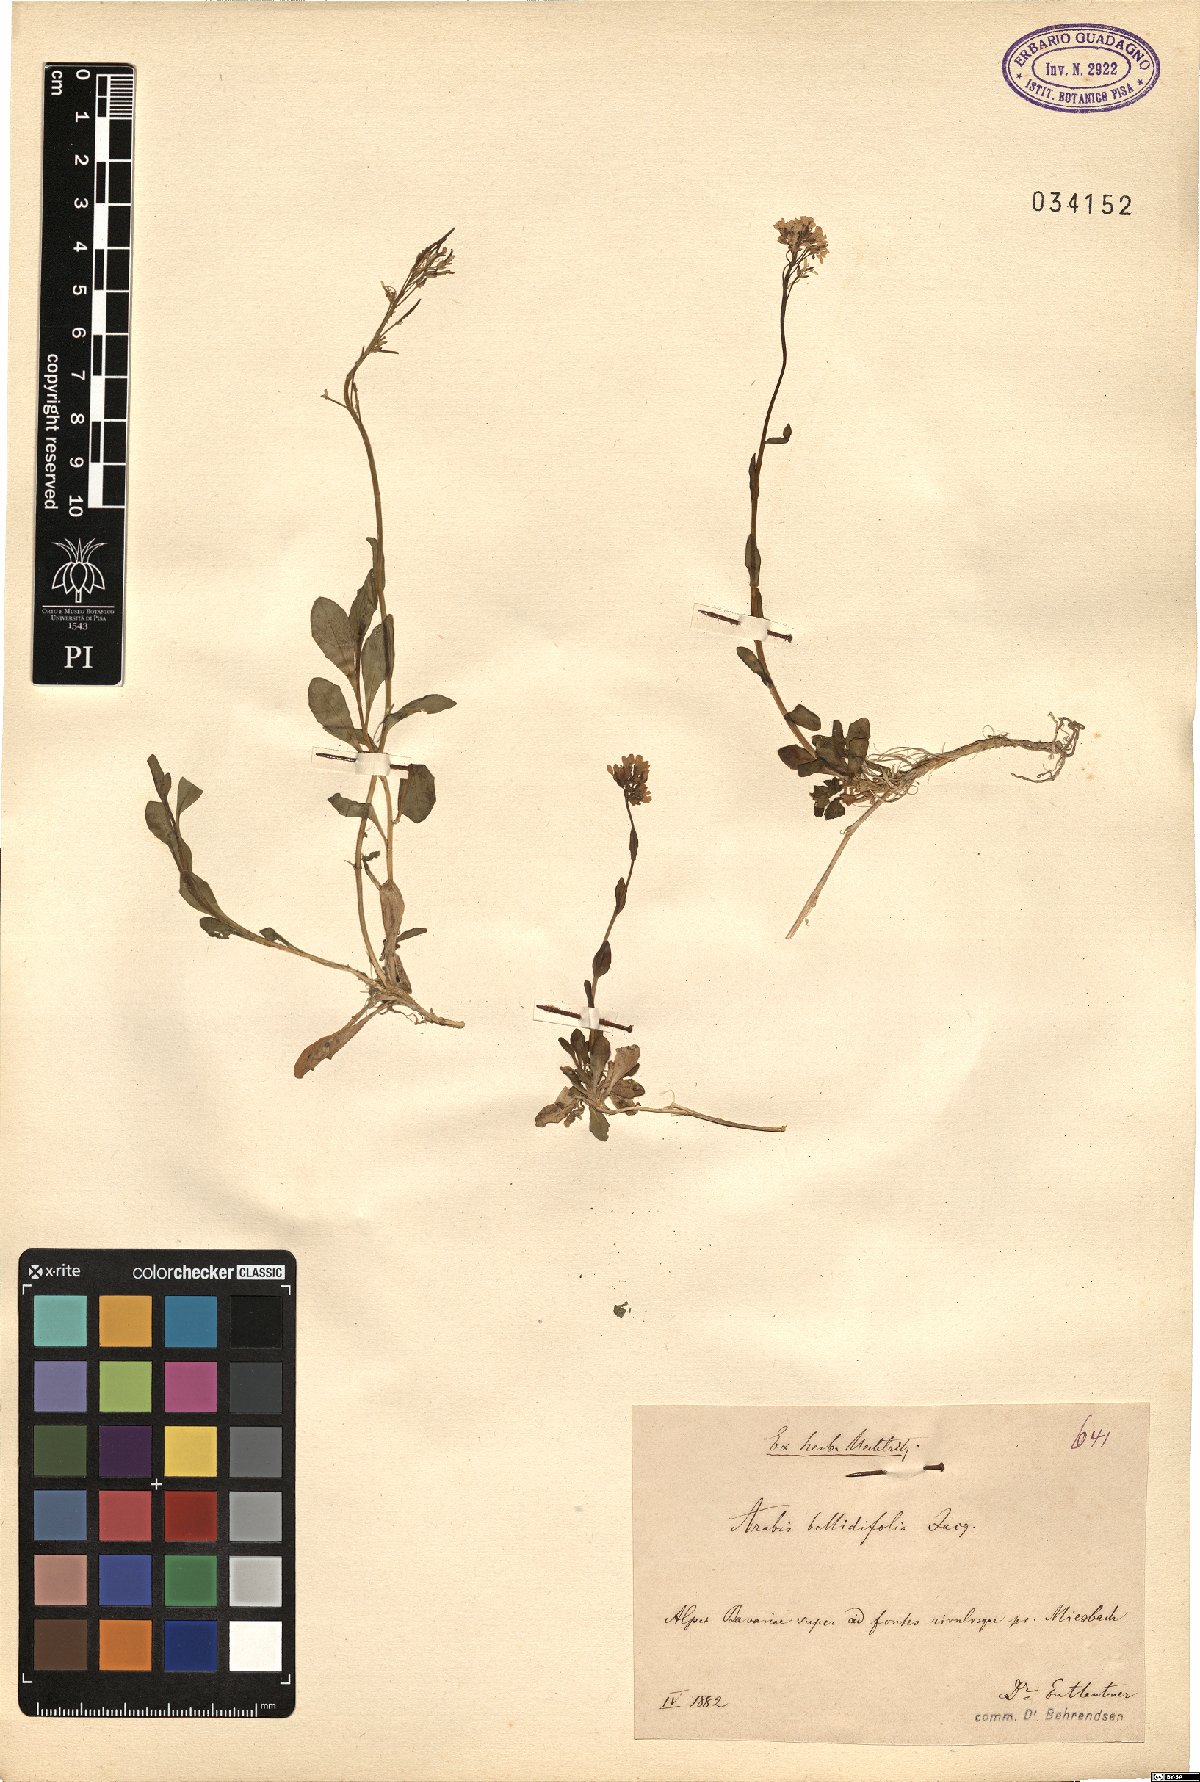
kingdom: Plantae
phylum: Tracheophyta
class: Magnoliopsida
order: Brassicales
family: Brassicaceae
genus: Arabis
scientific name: Arabis pumila
